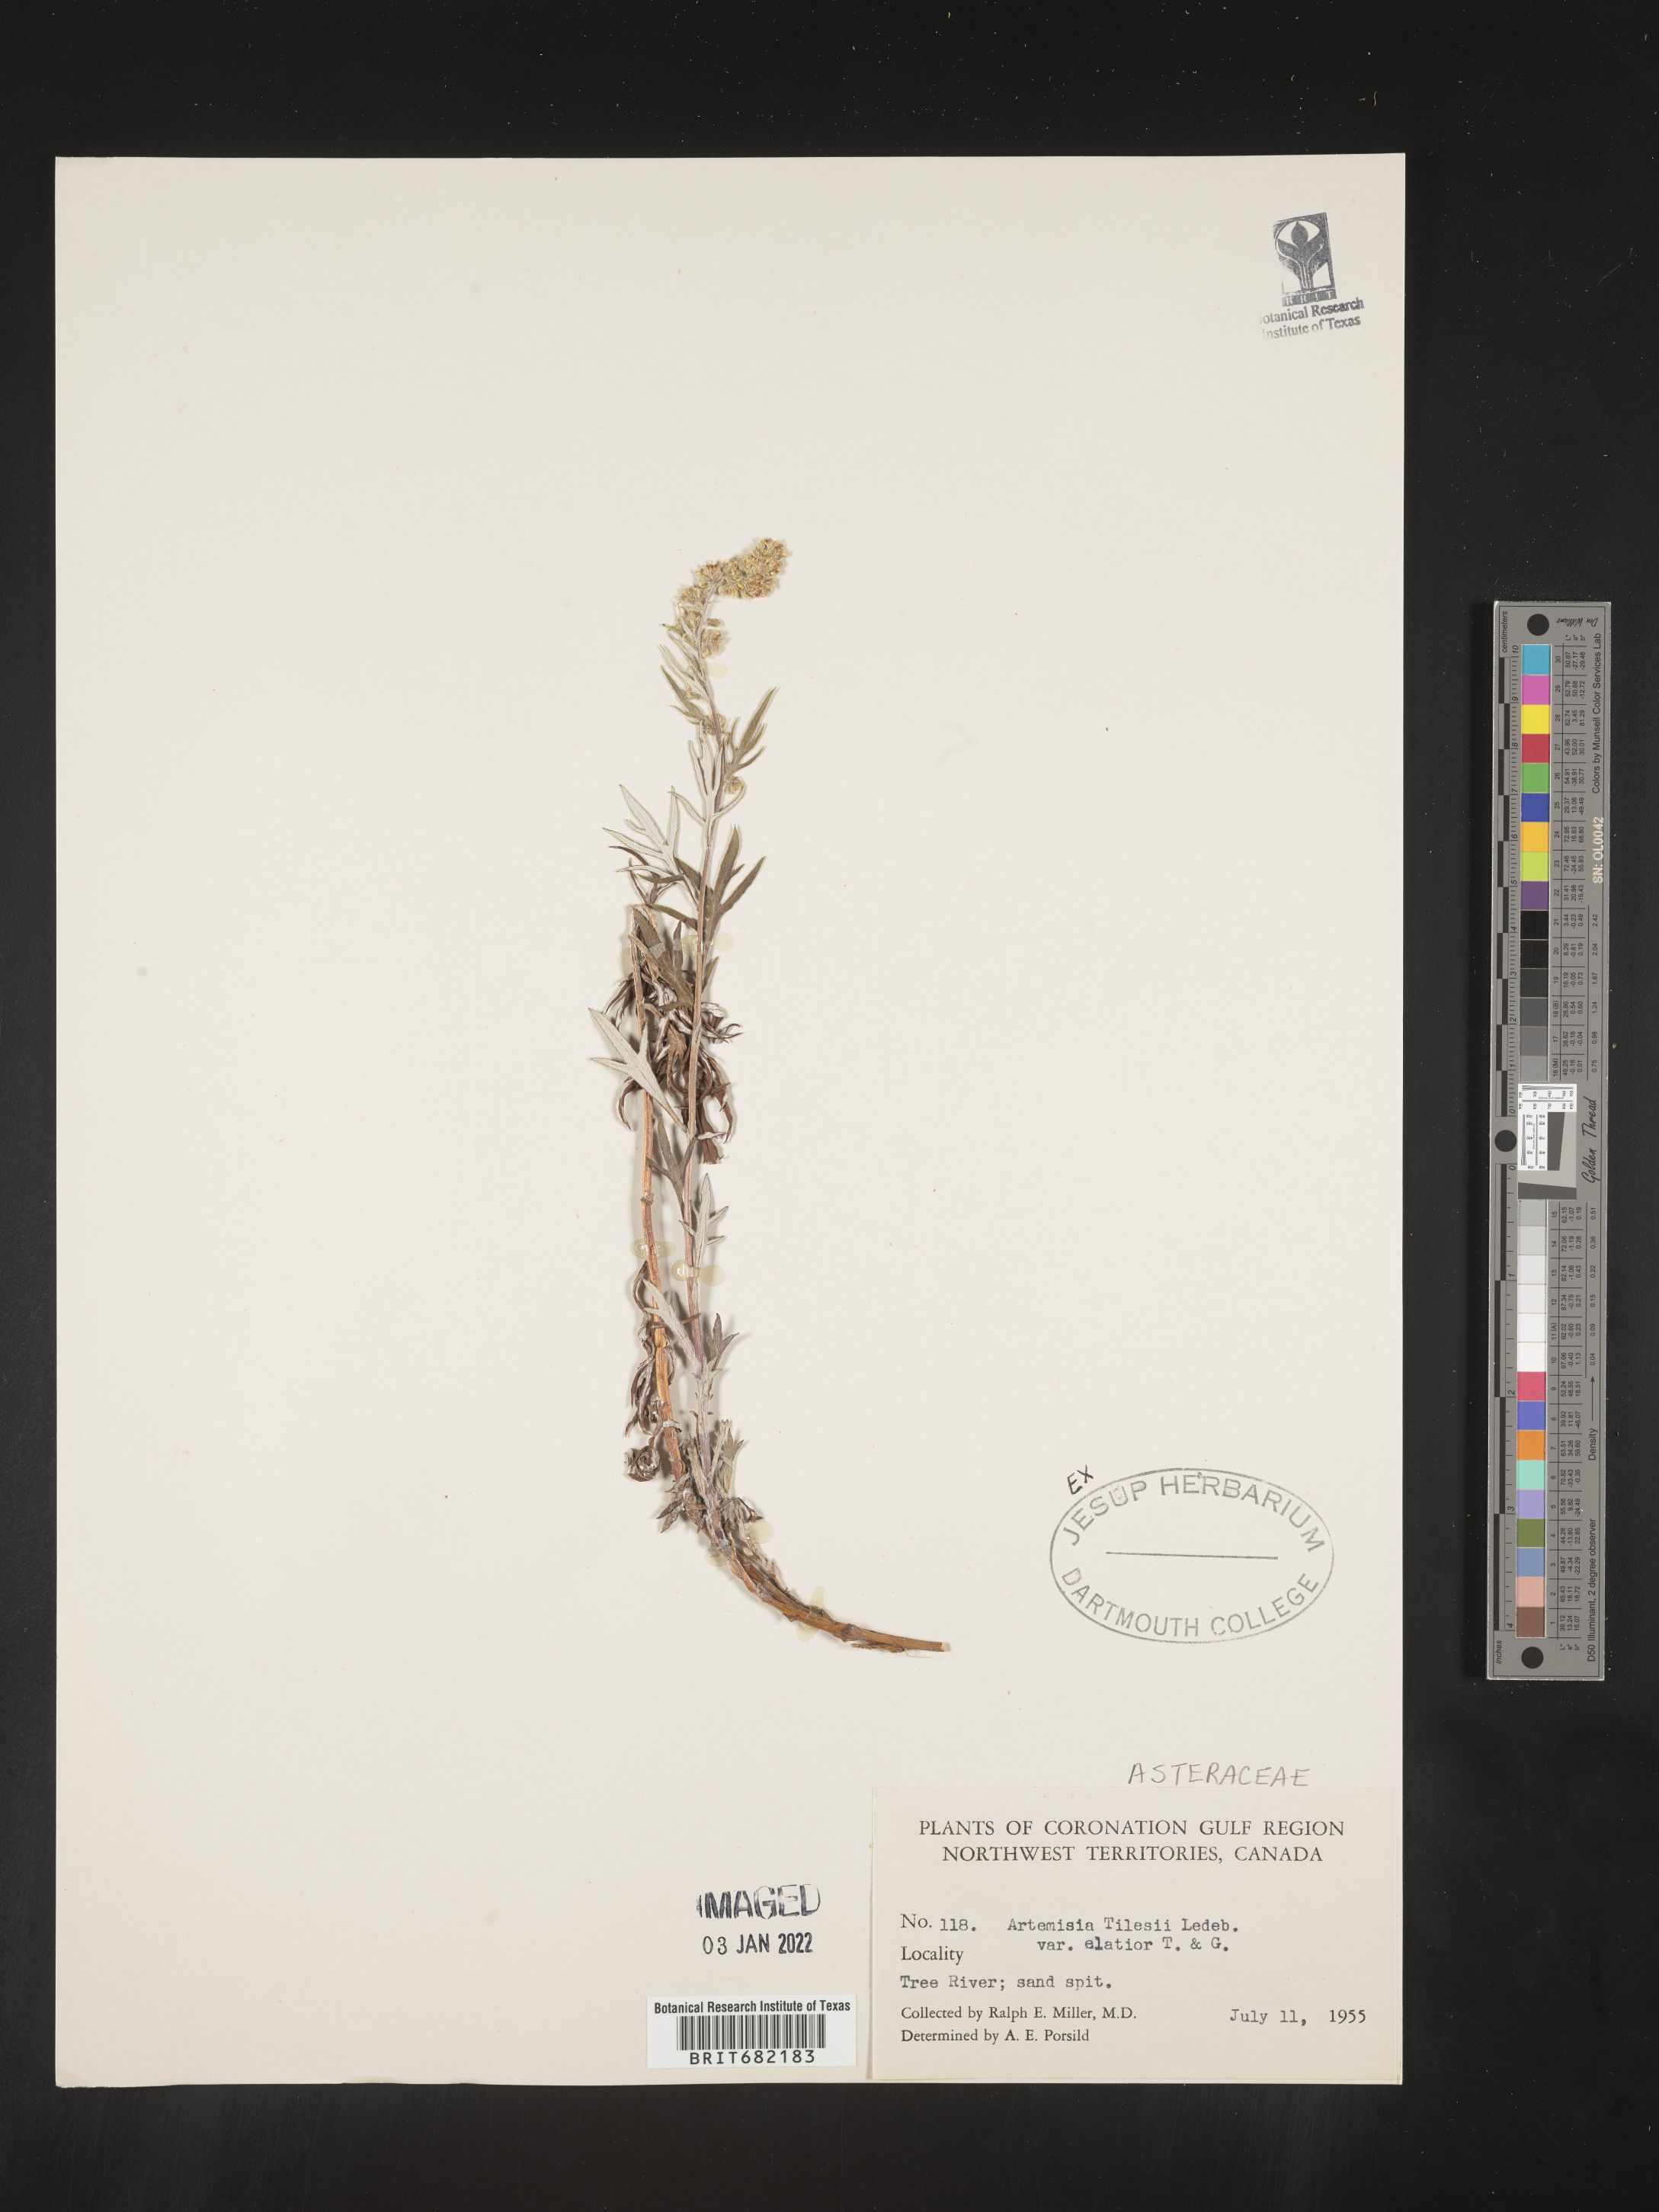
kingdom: Plantae
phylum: Tracheophyta
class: Magnoliopsida
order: Asterales
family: Asteraceae
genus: Artemisia
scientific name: Artemisia tilesii
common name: Aleutian mugwort
